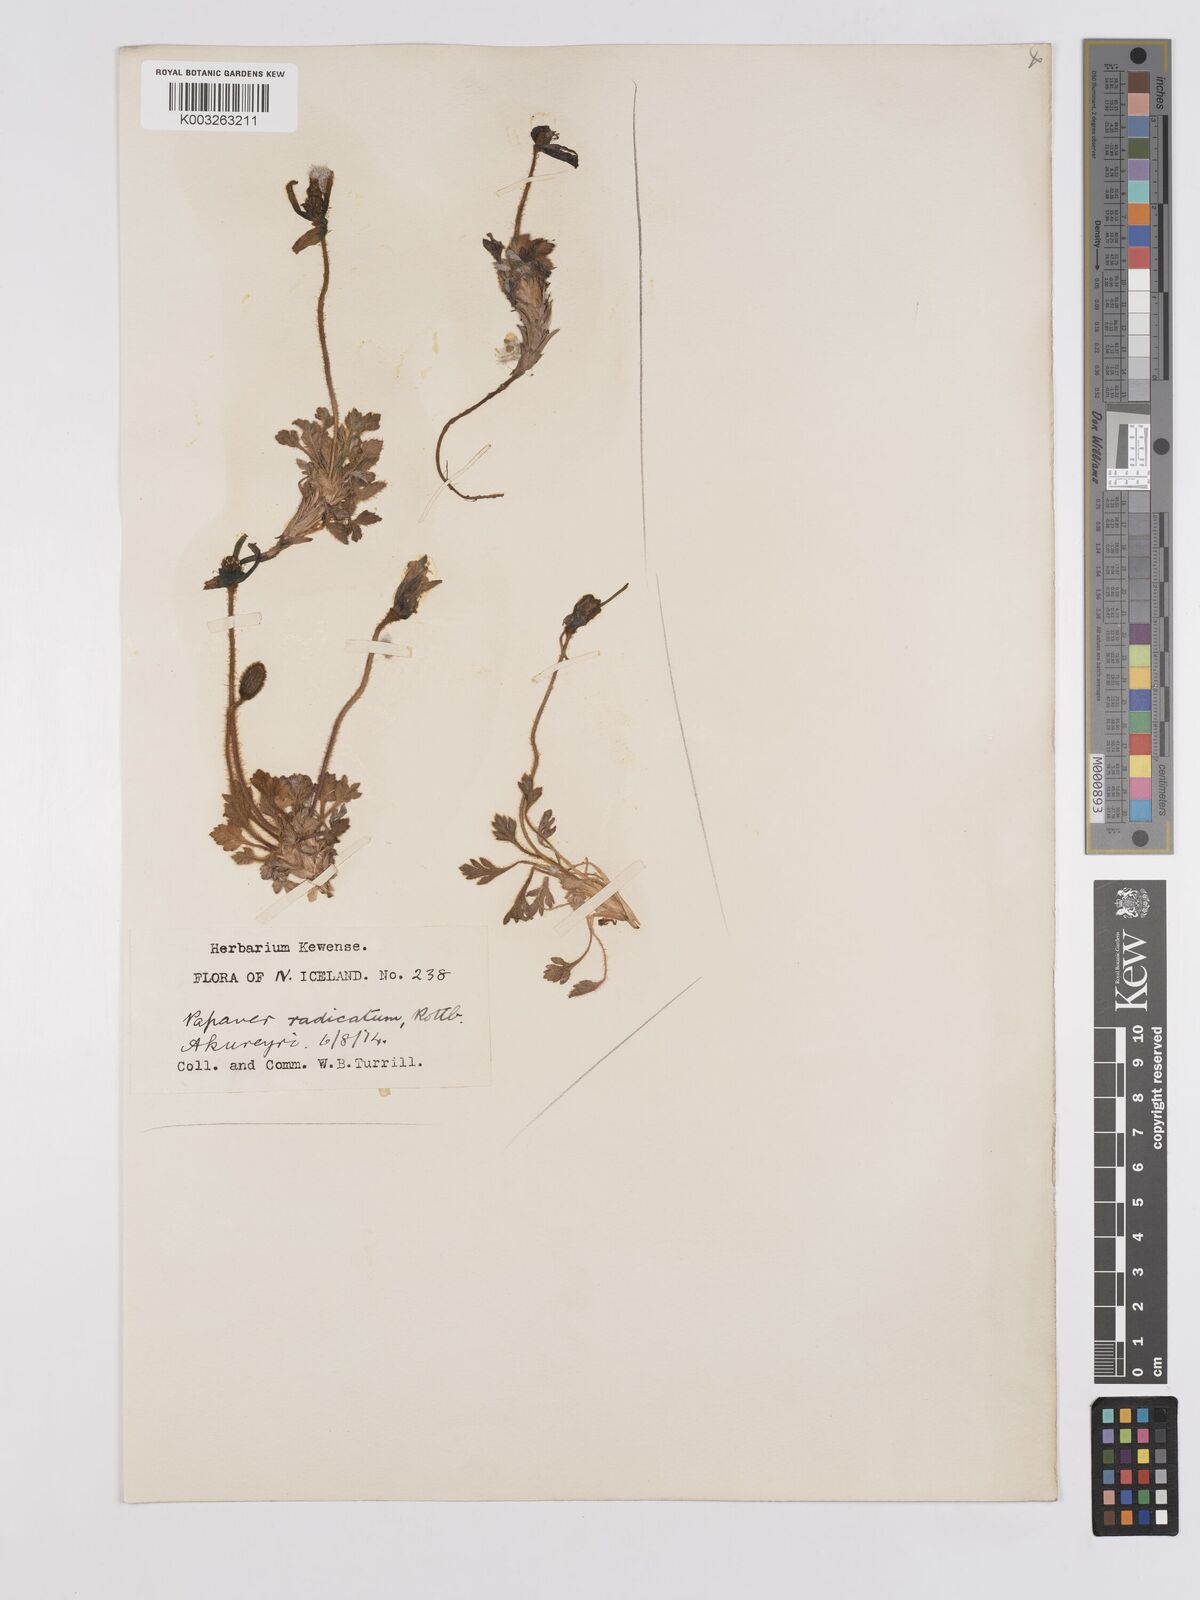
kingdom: Plantae
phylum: Tracheophyta
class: Magnoliopsida
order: Ranunculales
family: Papaveraceae
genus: Papaver
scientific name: Papaver radicatum
